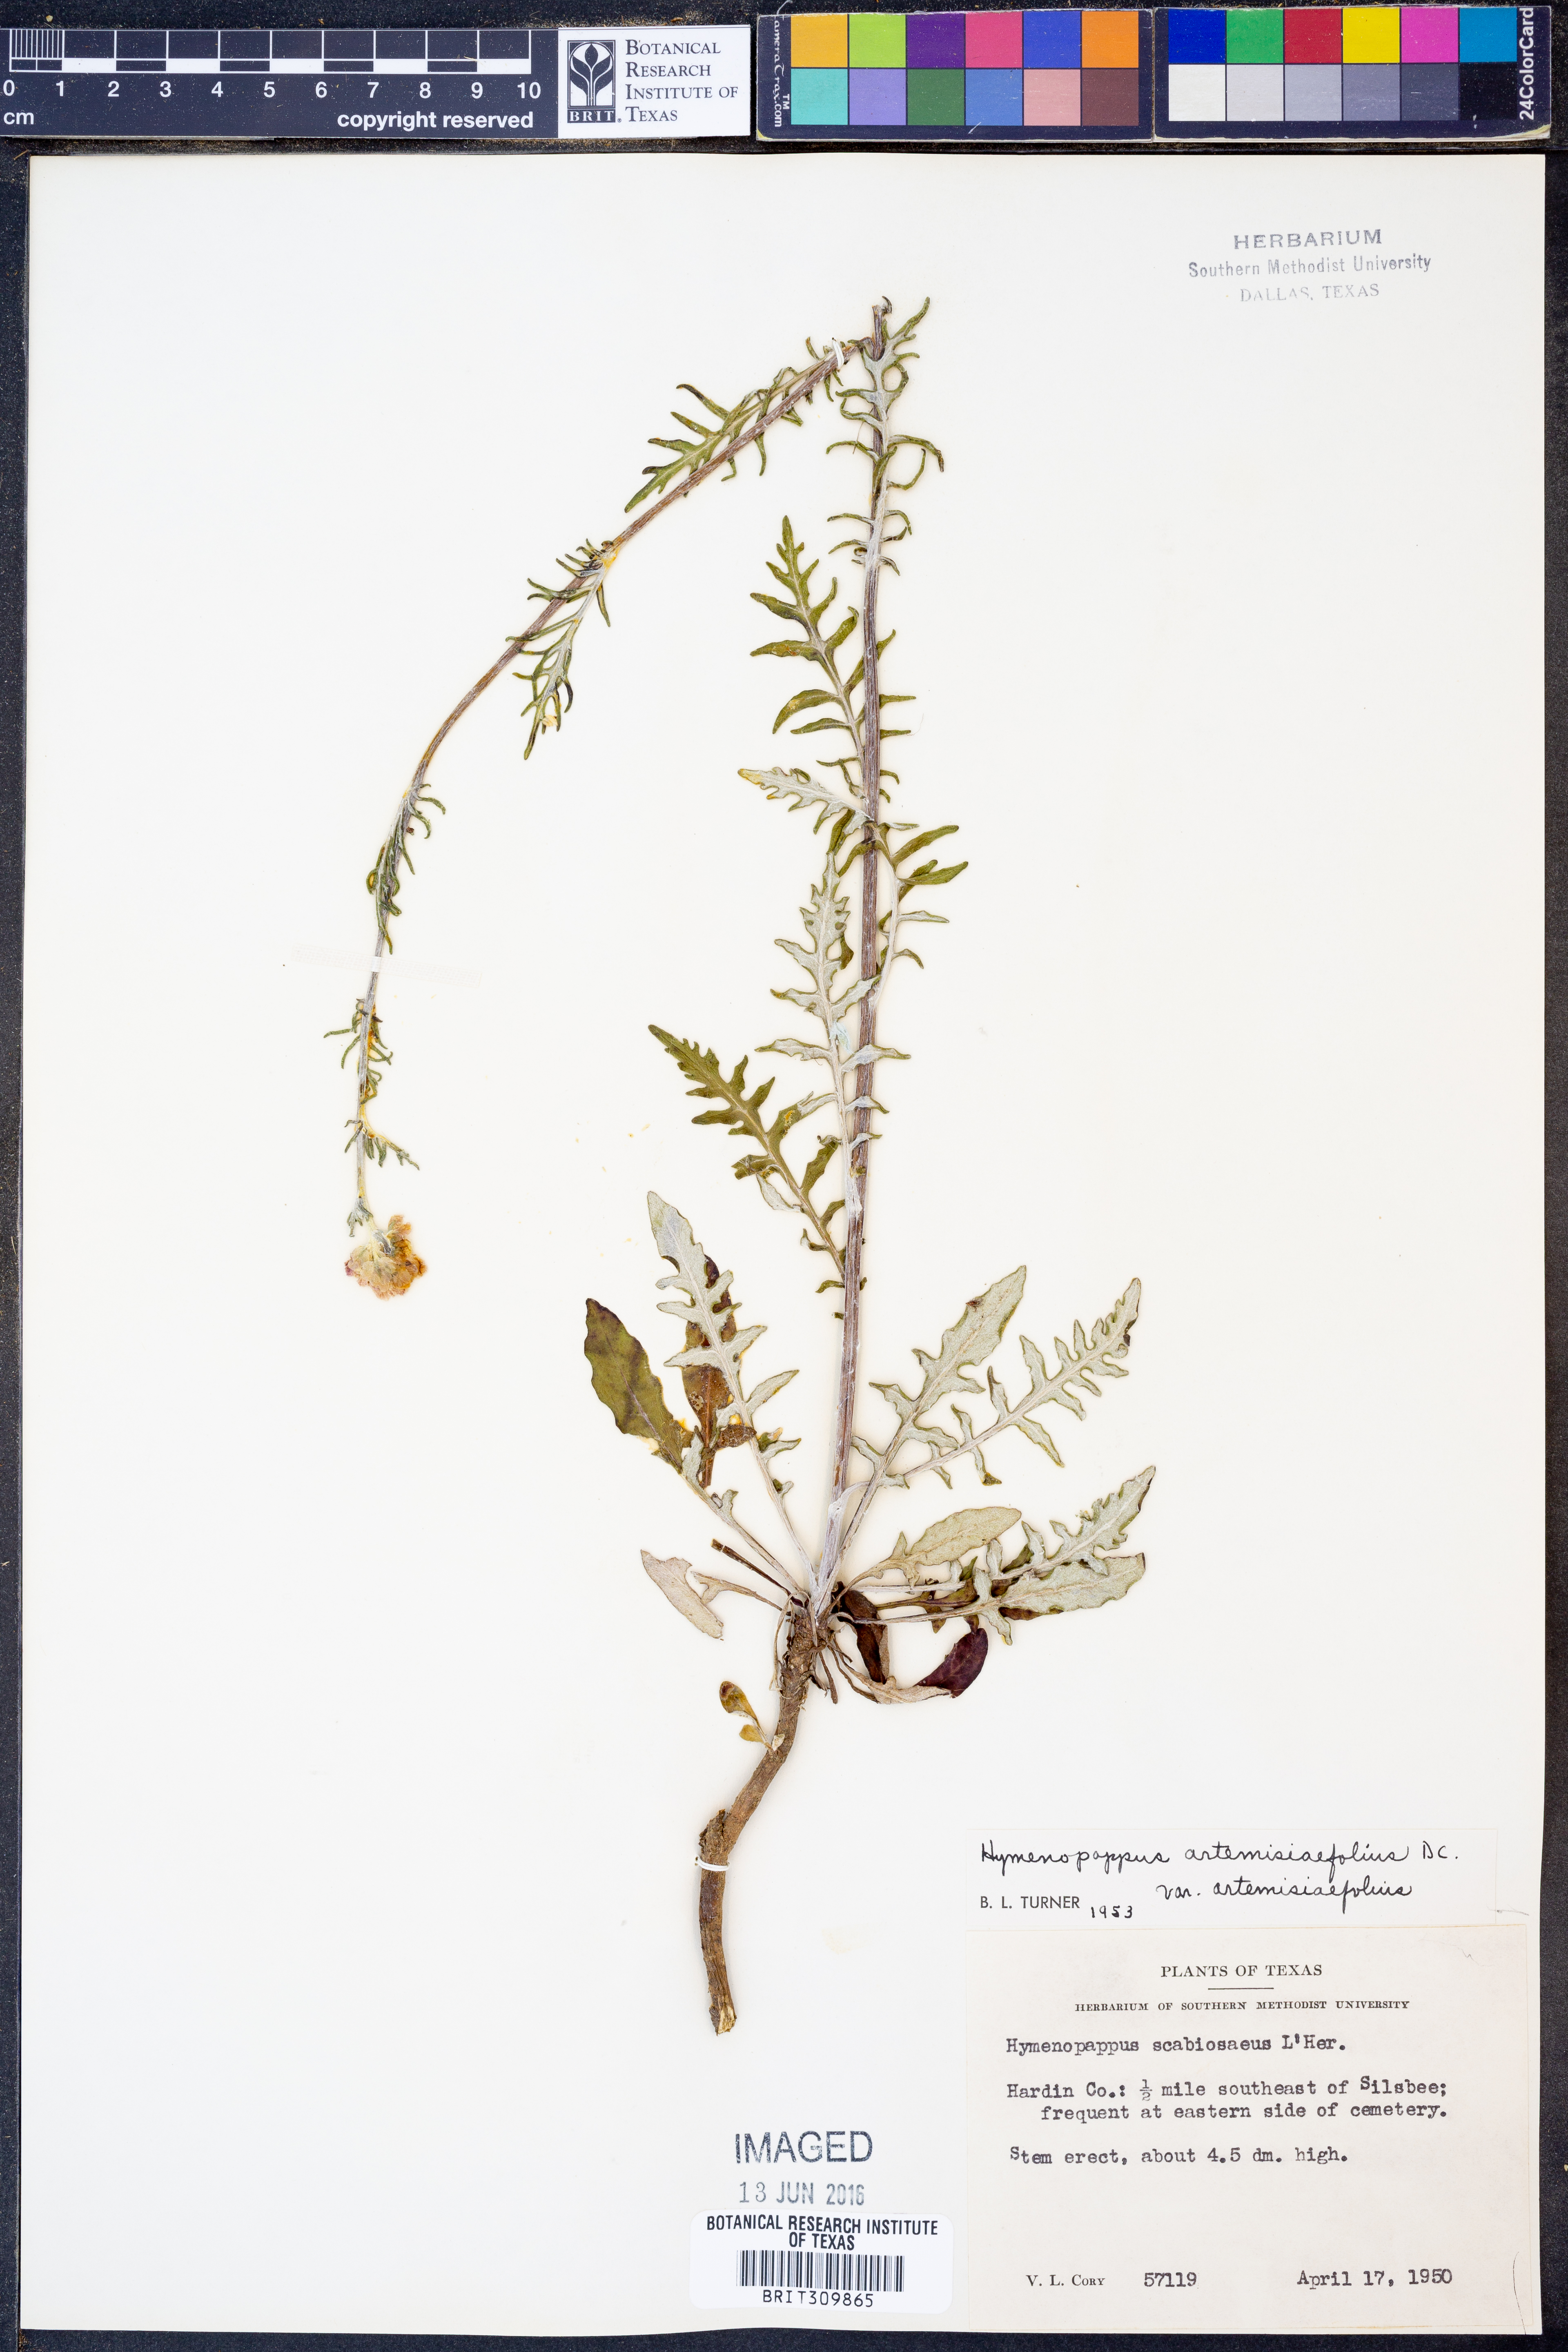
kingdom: Plantae
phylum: Tracheophyta
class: Magnoliopsida
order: Asterales
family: Asteraceae
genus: Hymenopappus
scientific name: Hymenopappus artemisiifolius
